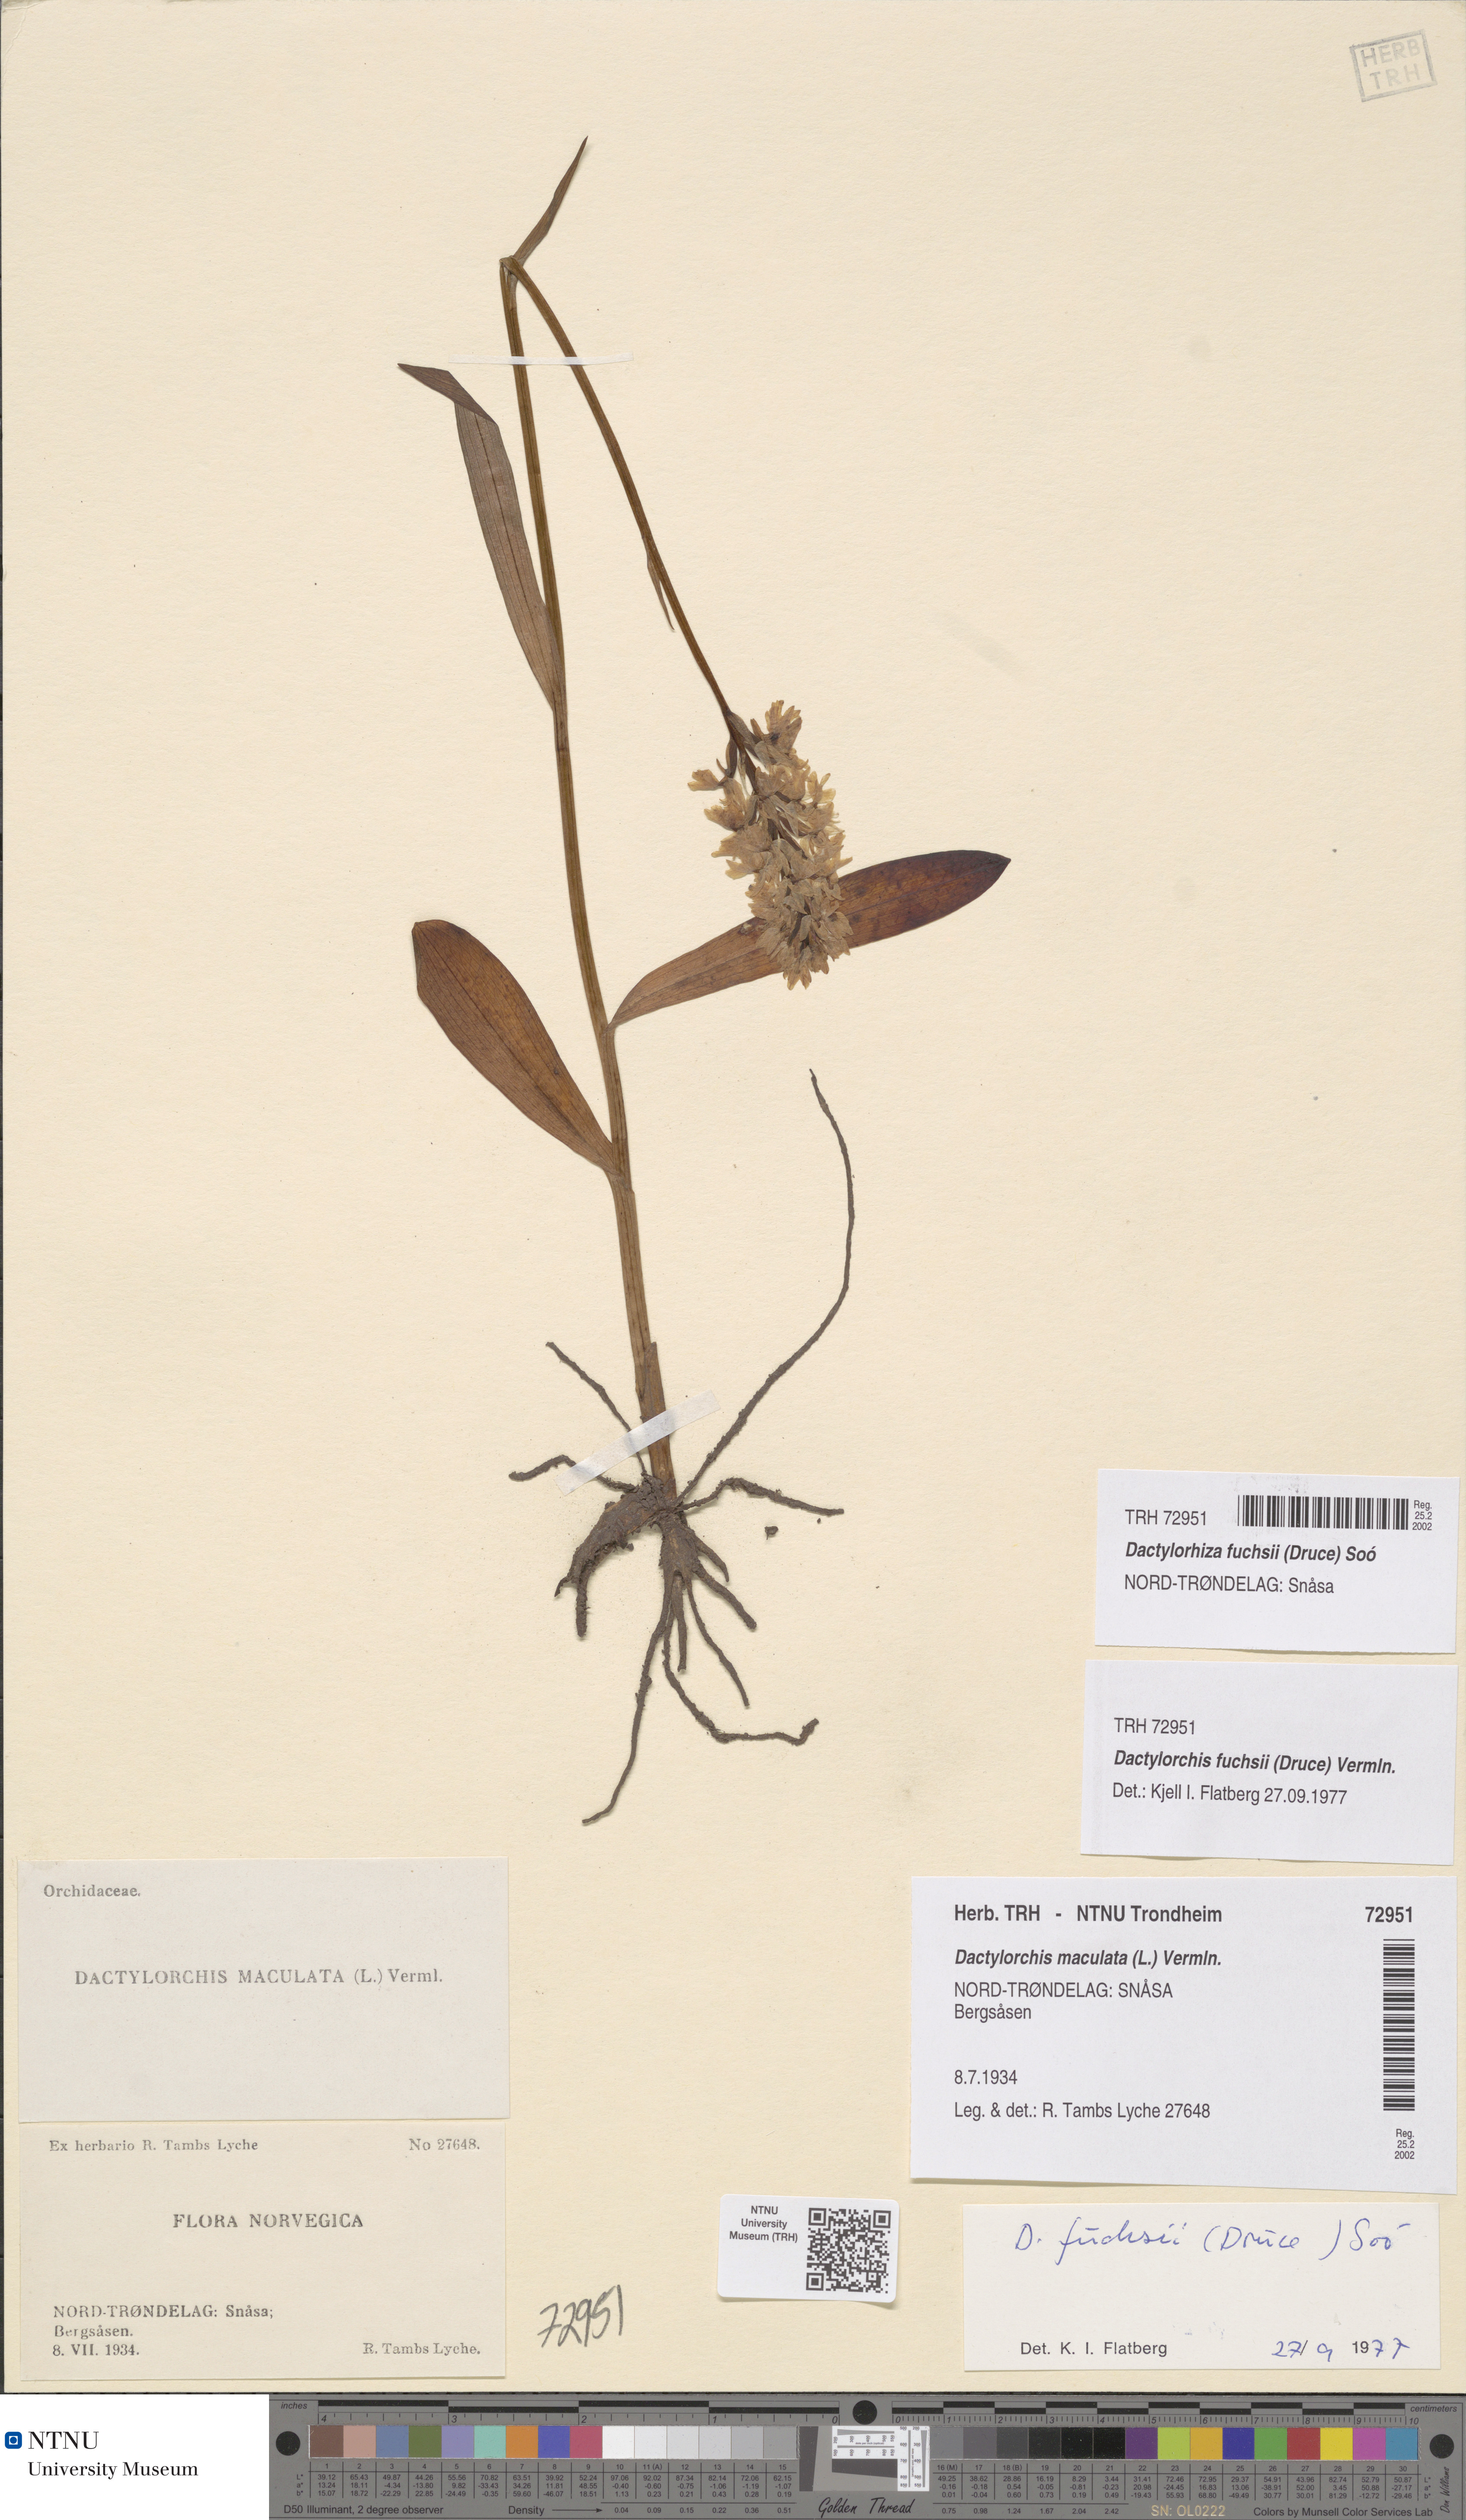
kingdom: Plantae
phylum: Tracheophyta
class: Liliopsida
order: Asparagales
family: Orchidaceae
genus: Dactylorhiza
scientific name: Dactylorhiza maculata
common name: Heath spotted-orchid
